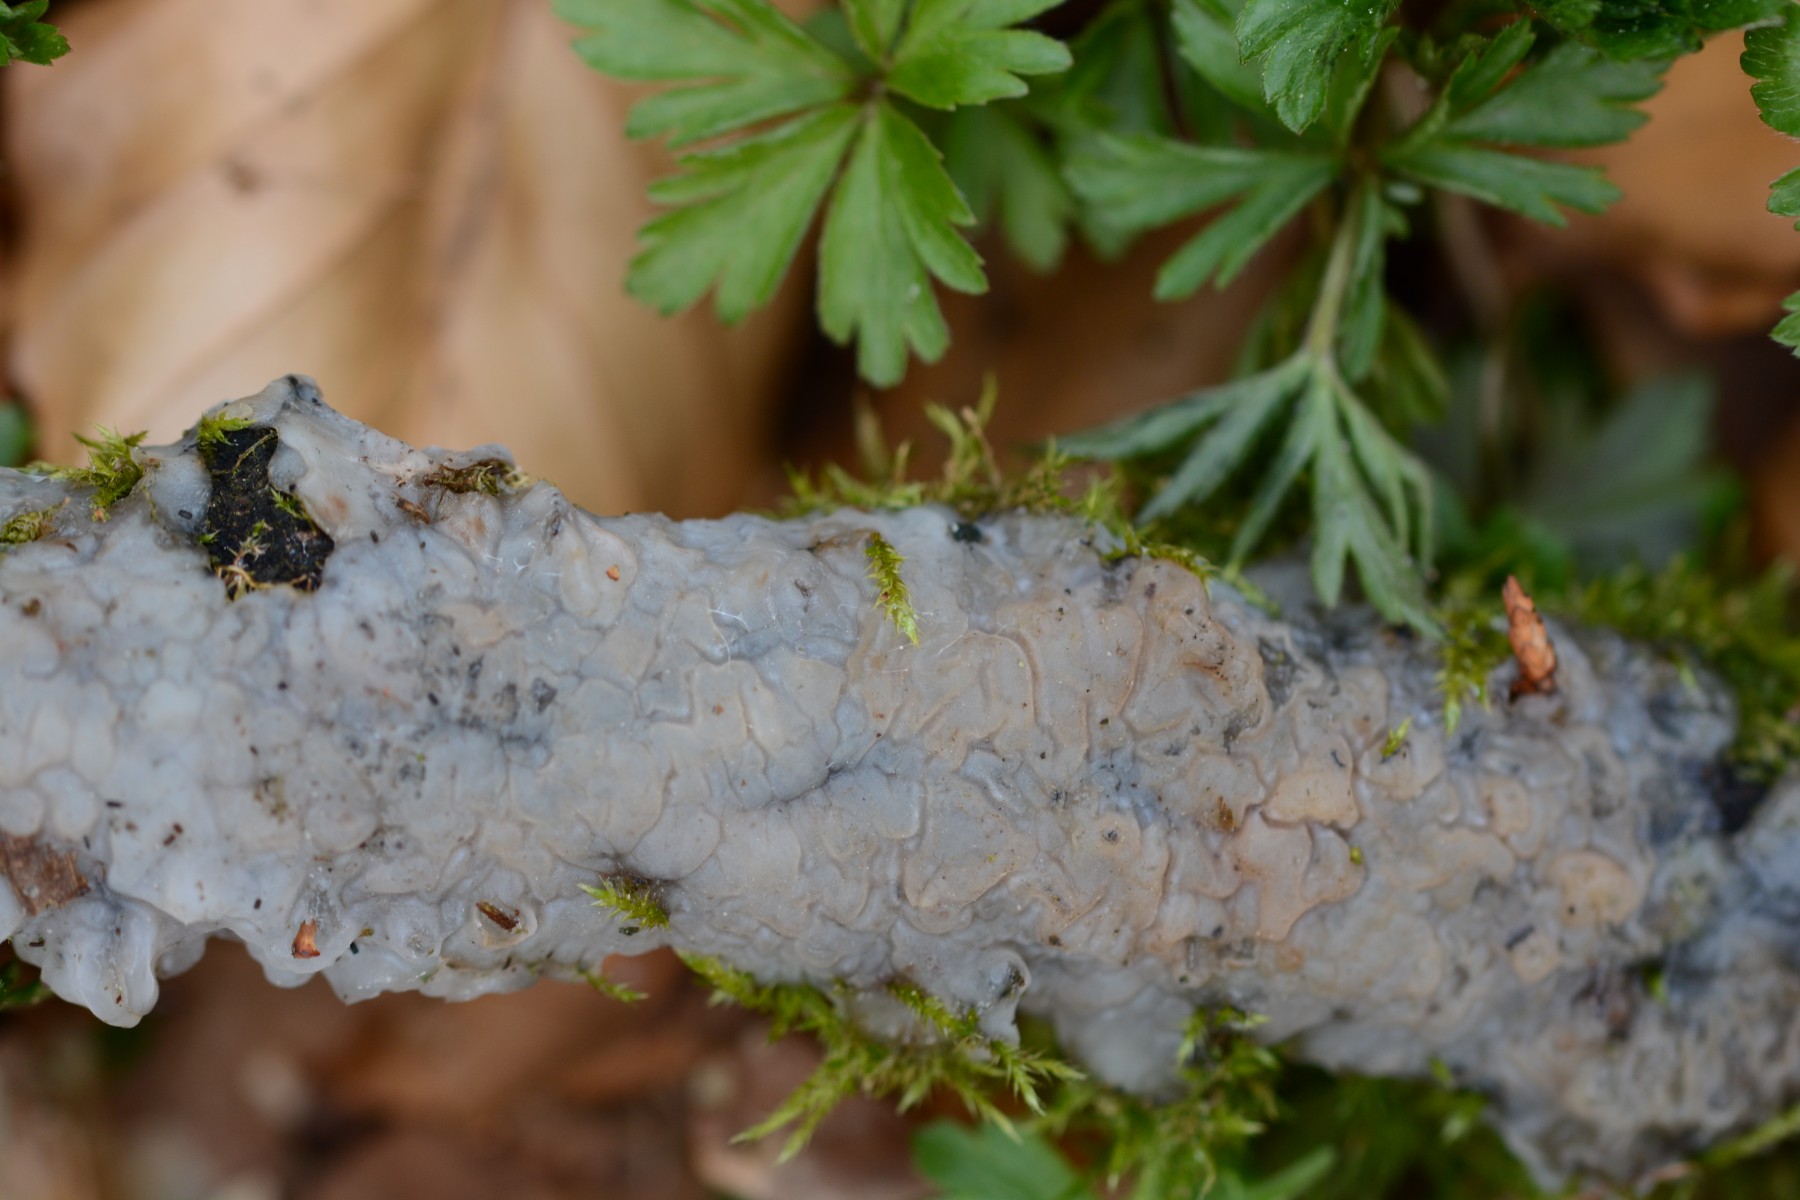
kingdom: Fungi
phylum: Basidiomycota
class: Agaricomycetes
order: Auriculariales
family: Auriculariaceae
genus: Exidia
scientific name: Exidia thuretiana
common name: hvidlig bævretop
